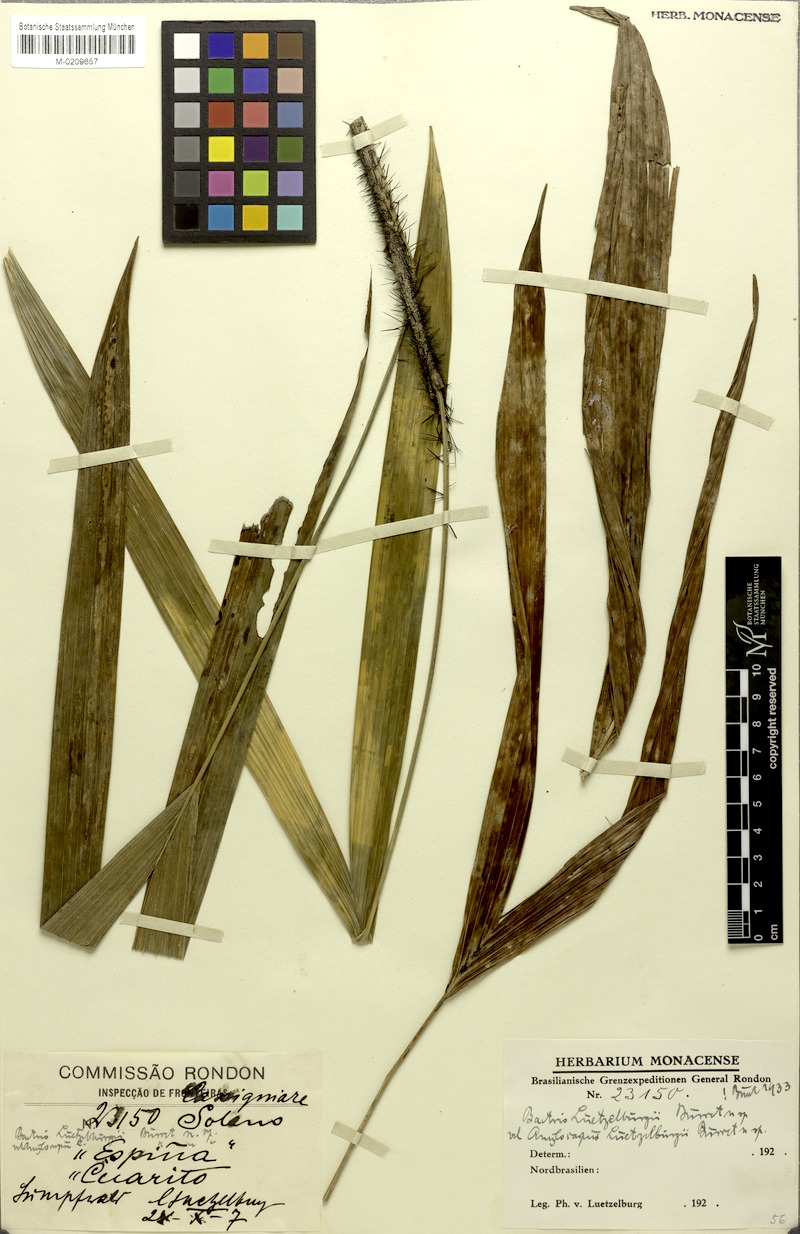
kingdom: Plantae
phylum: Tracheophyta
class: Liliopsida
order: Arecales
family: Arecaceae
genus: Bactris
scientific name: Bactris simplicifrons
